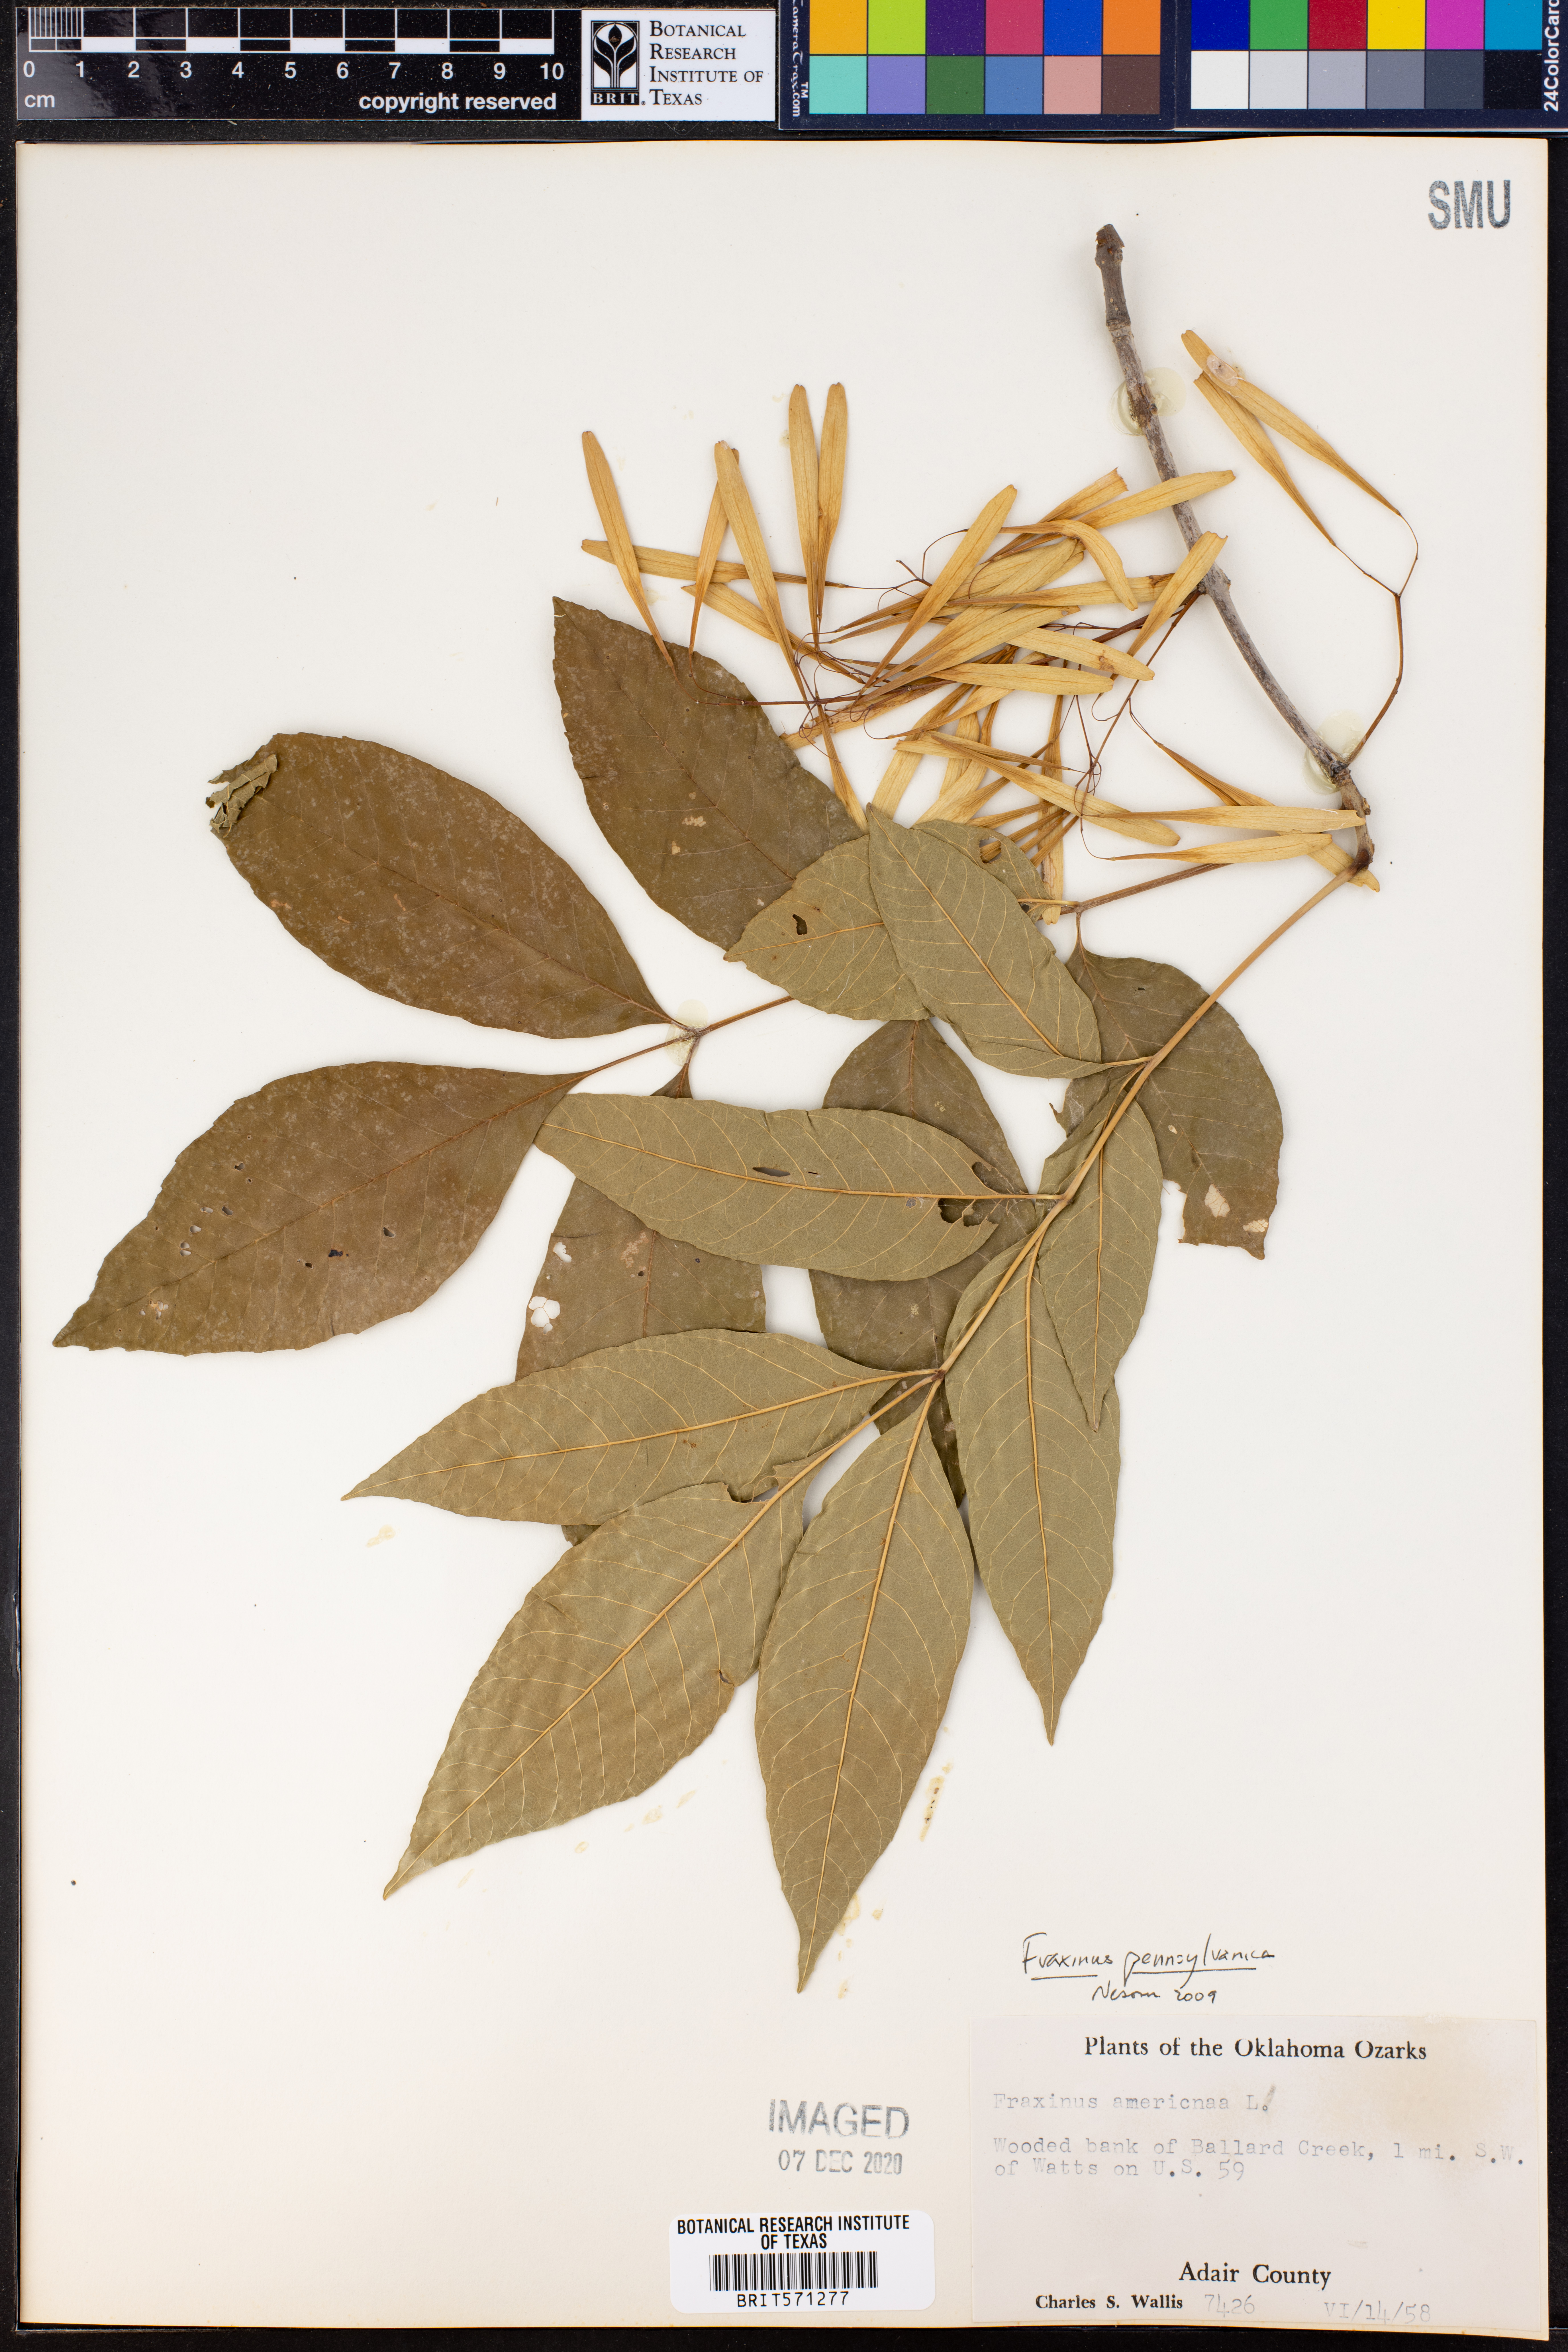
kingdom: Plantae
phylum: Tracheophyta
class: Magnoliopsida
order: Lamiales
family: Oleaceae
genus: Fraxinus
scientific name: Fraxinus pennsylvanica
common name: Green ash
